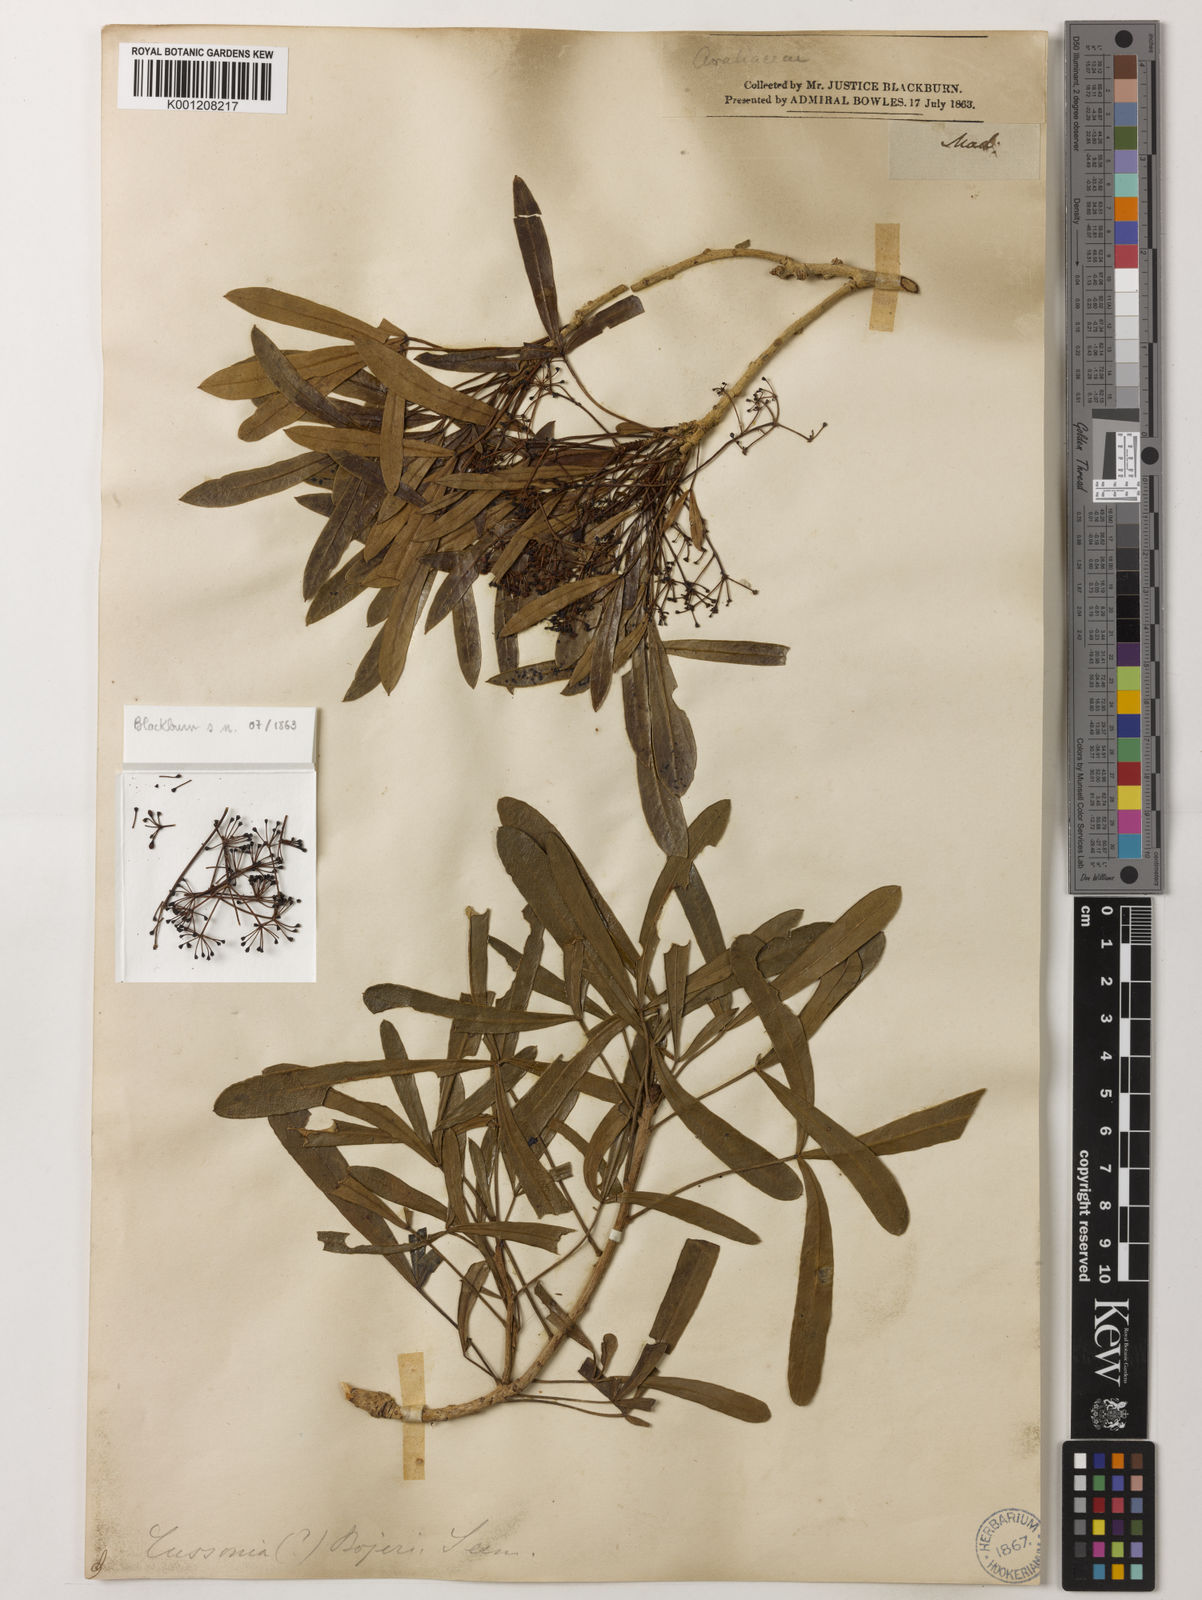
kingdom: Plantae
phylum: Tracheophyta
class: Magnoliopsida
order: Apiales
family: Araliaceae
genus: Neocussonia
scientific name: Neocussonia bojeri
